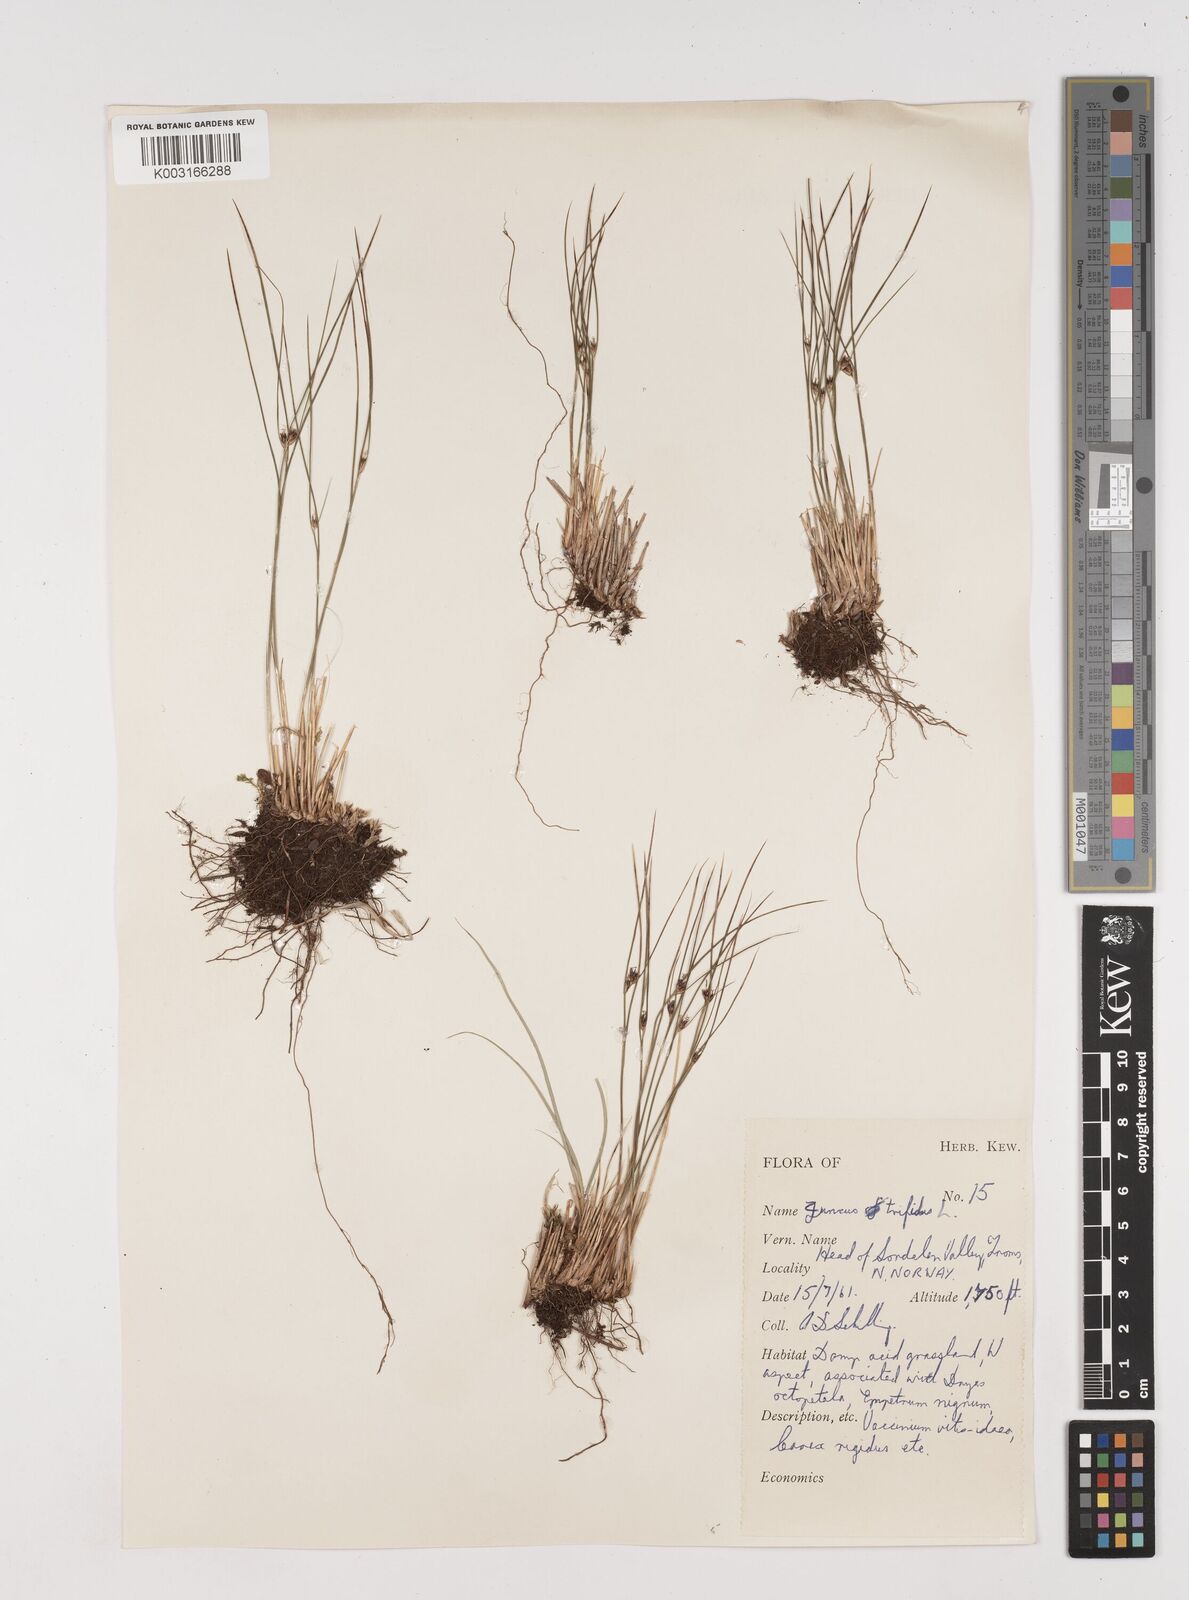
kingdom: Plantae
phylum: Tracheophyta
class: Liliopsida
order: Poales
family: Juncaceae
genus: Oreojuncus
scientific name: Oreojuncus trifidus
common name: Highland rush
